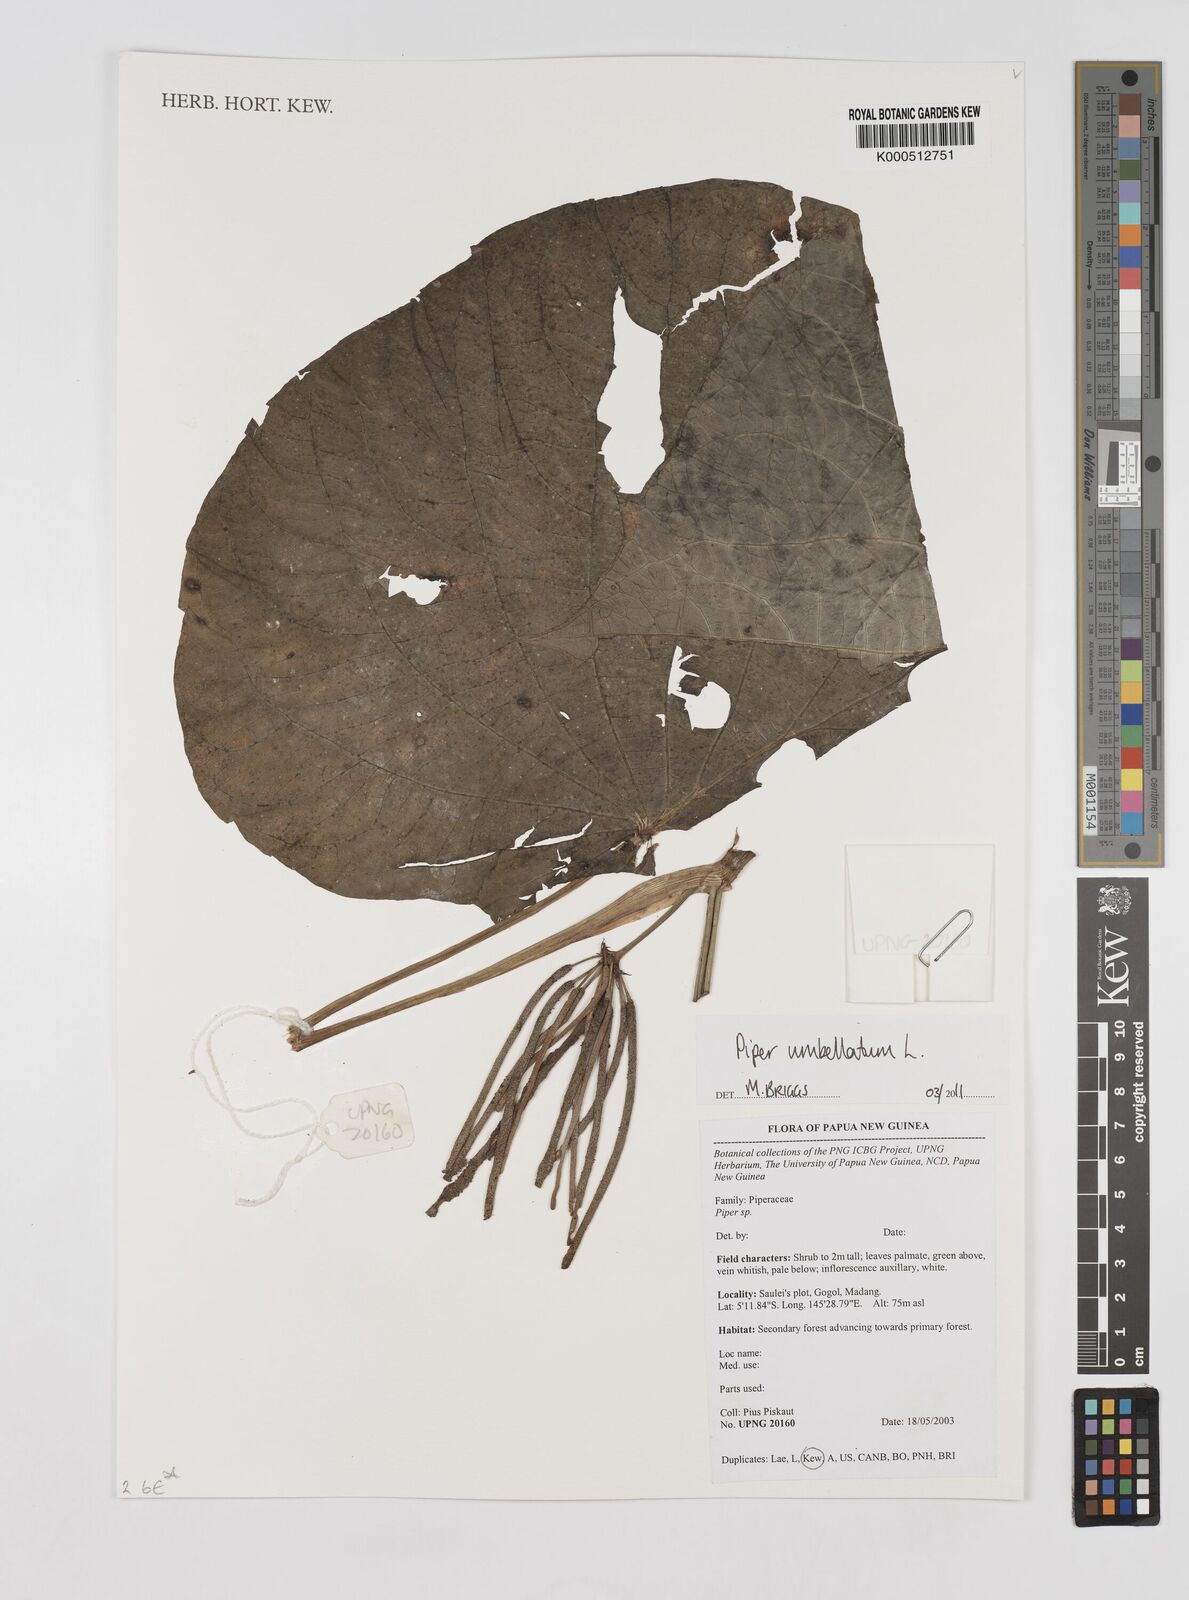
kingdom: Plantae
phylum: Tracheophyta
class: Magnoliopsida
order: Piperales
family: Piperaceae
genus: Piper
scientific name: Piper umbellatum
